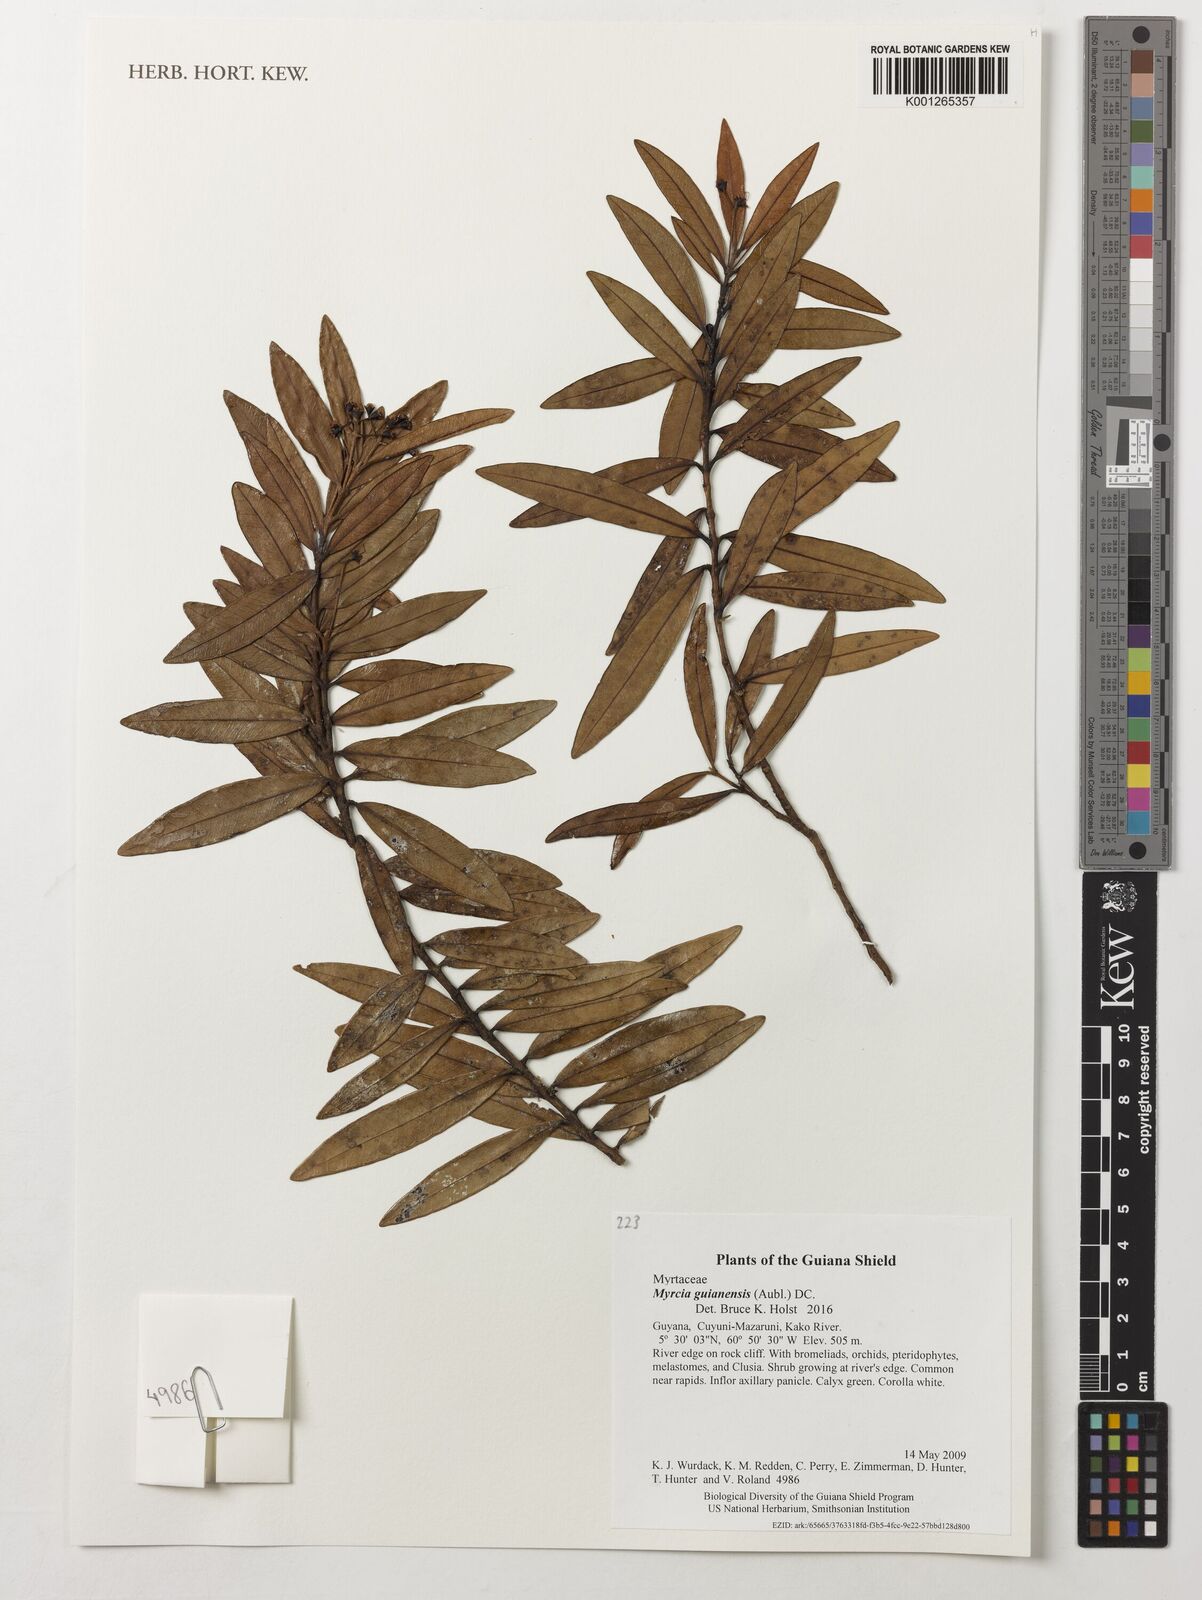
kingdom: Plantae
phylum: Tracheophyta
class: Magnoliopsida
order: Myrtales
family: Myrtaceae
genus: Myrcia
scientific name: Myrcia guianensis
